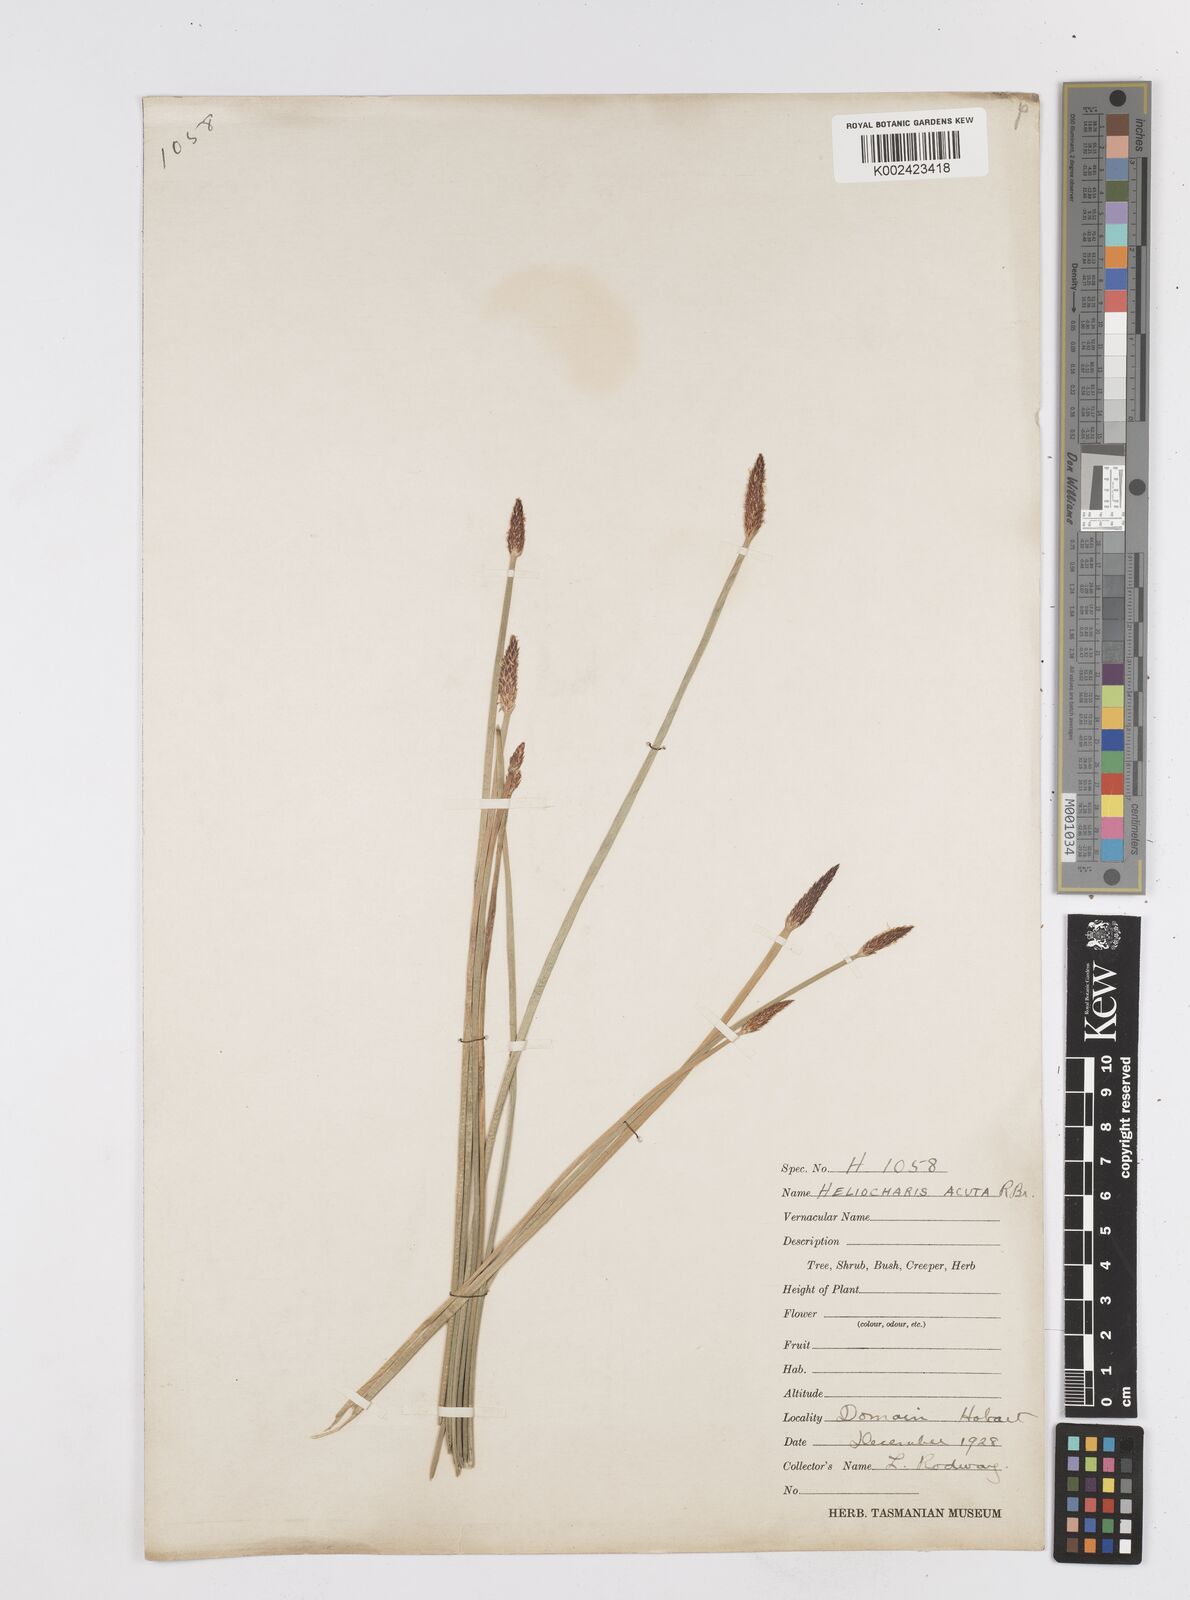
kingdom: Plantae
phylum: Tracheophyta
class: Liliopsida
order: Poales
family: Cyperaceae
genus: Eleocharis
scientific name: Eleocharis acuta
